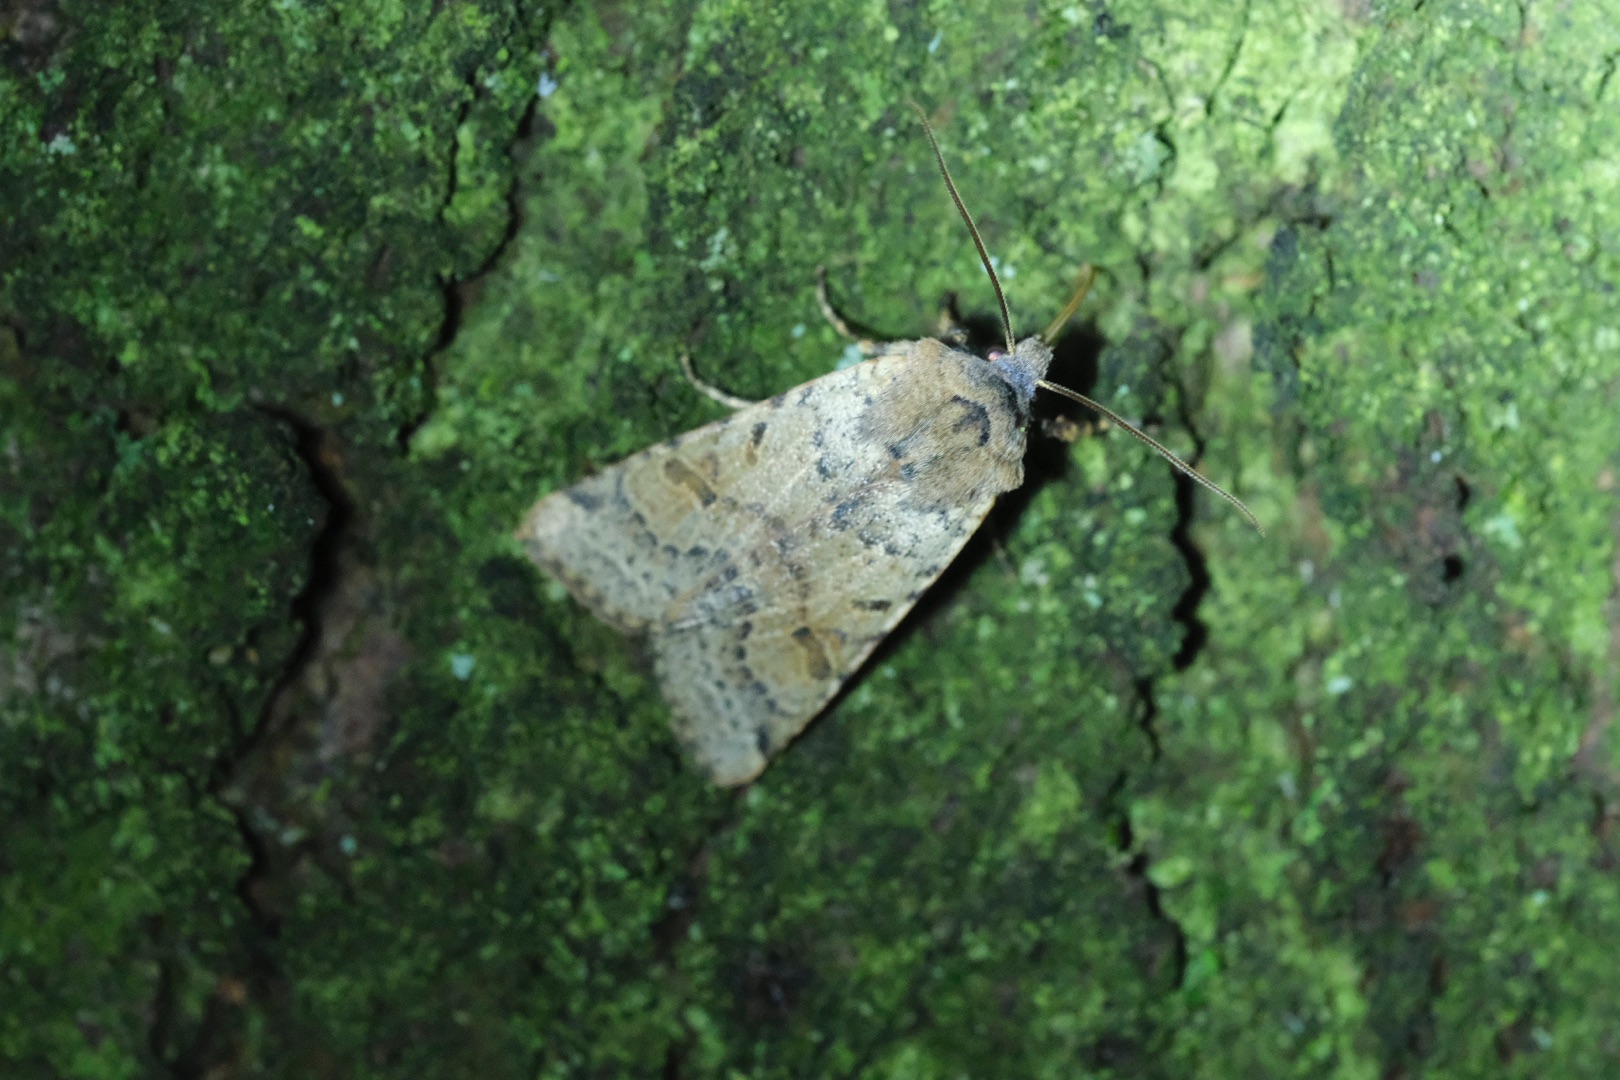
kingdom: Animalia
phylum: Arthropoda
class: Insecta
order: Lepidoptera
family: Noctuidae
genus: Agrochola
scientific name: Agrochola lychnidis
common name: Foranderlig jordfarveugle
